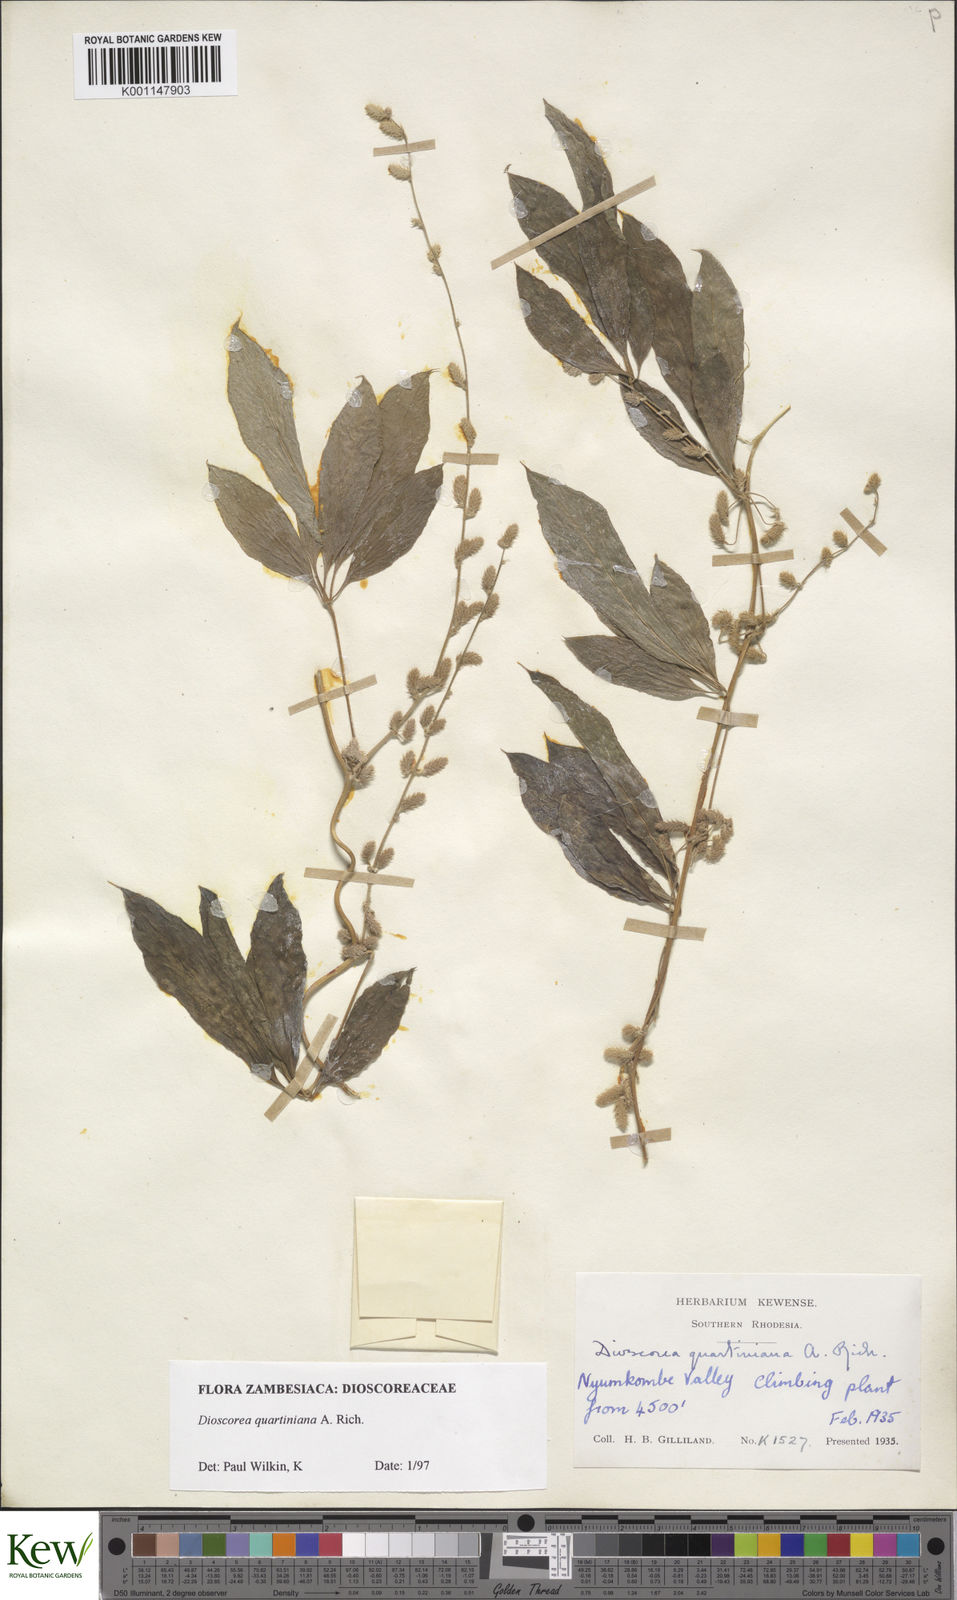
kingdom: Plantae
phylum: Tracheophyta
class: Liliopsida
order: Dioscoreales
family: Dioscoreaceae
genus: Dioscorea
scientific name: Dioscorea quartiniana
